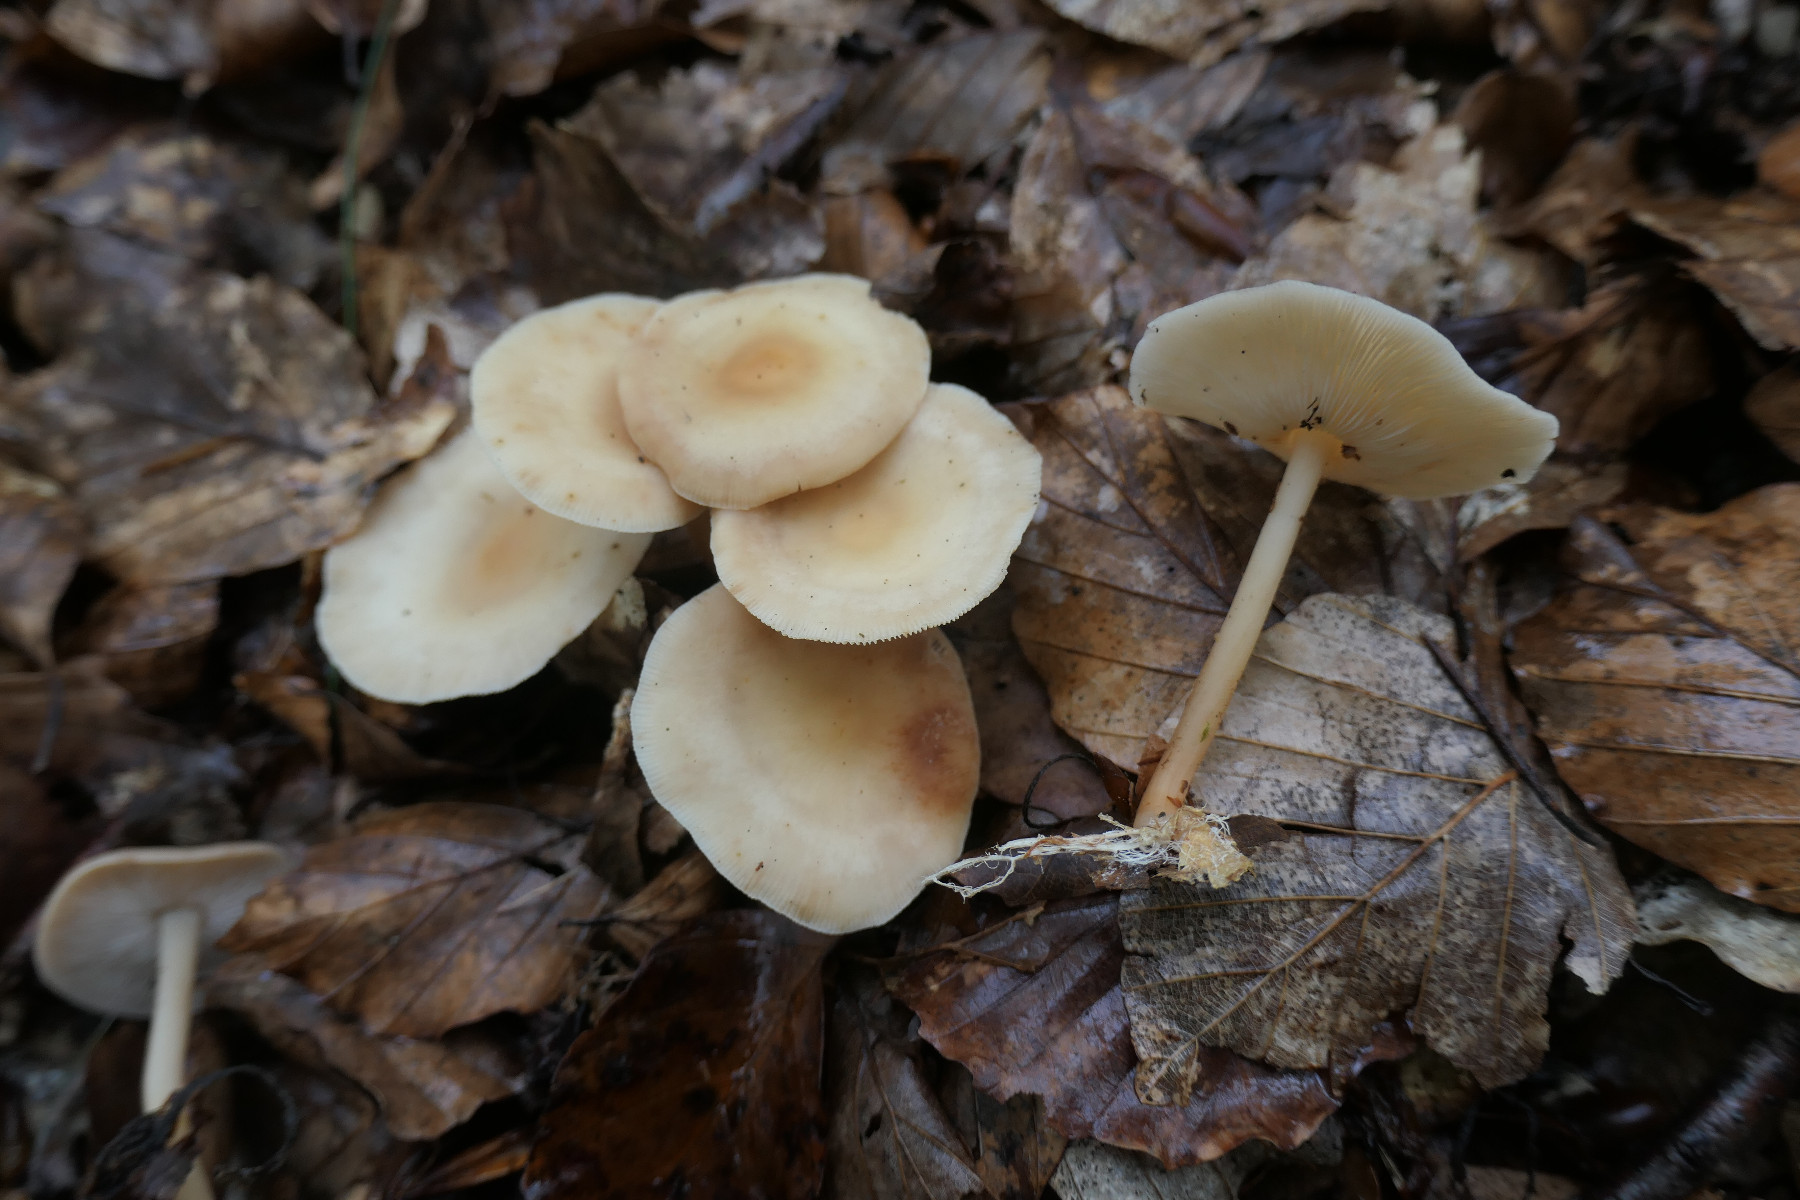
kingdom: Fungi
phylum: Basidiomycota
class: Agaricomycetes
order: Agaricales
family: Omphalotaceae
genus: Gymnopus
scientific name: Gymnopus dryophilus
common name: løv-fladhat
